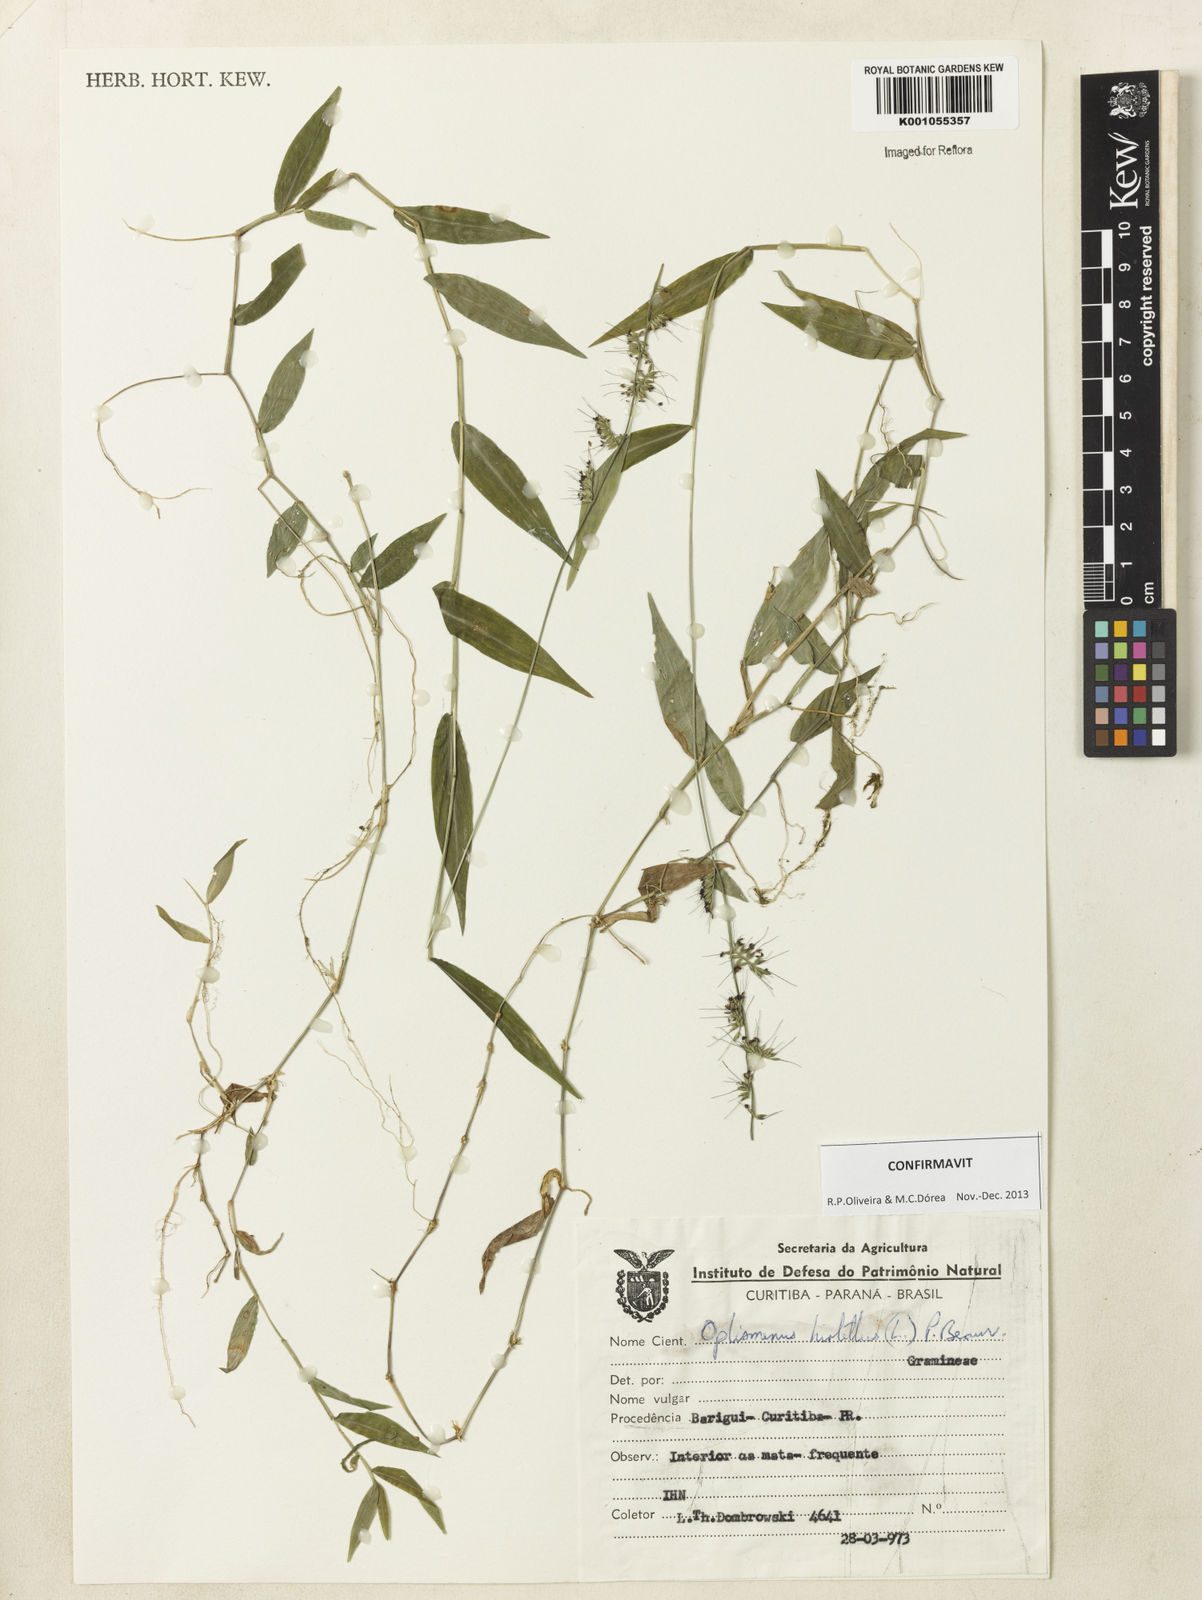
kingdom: Plantae
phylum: Tracheophyta
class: Liliopsida
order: Poales
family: Poaceae
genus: Oplismenus
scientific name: Oplismenus hirtellus
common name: Basketgrass
